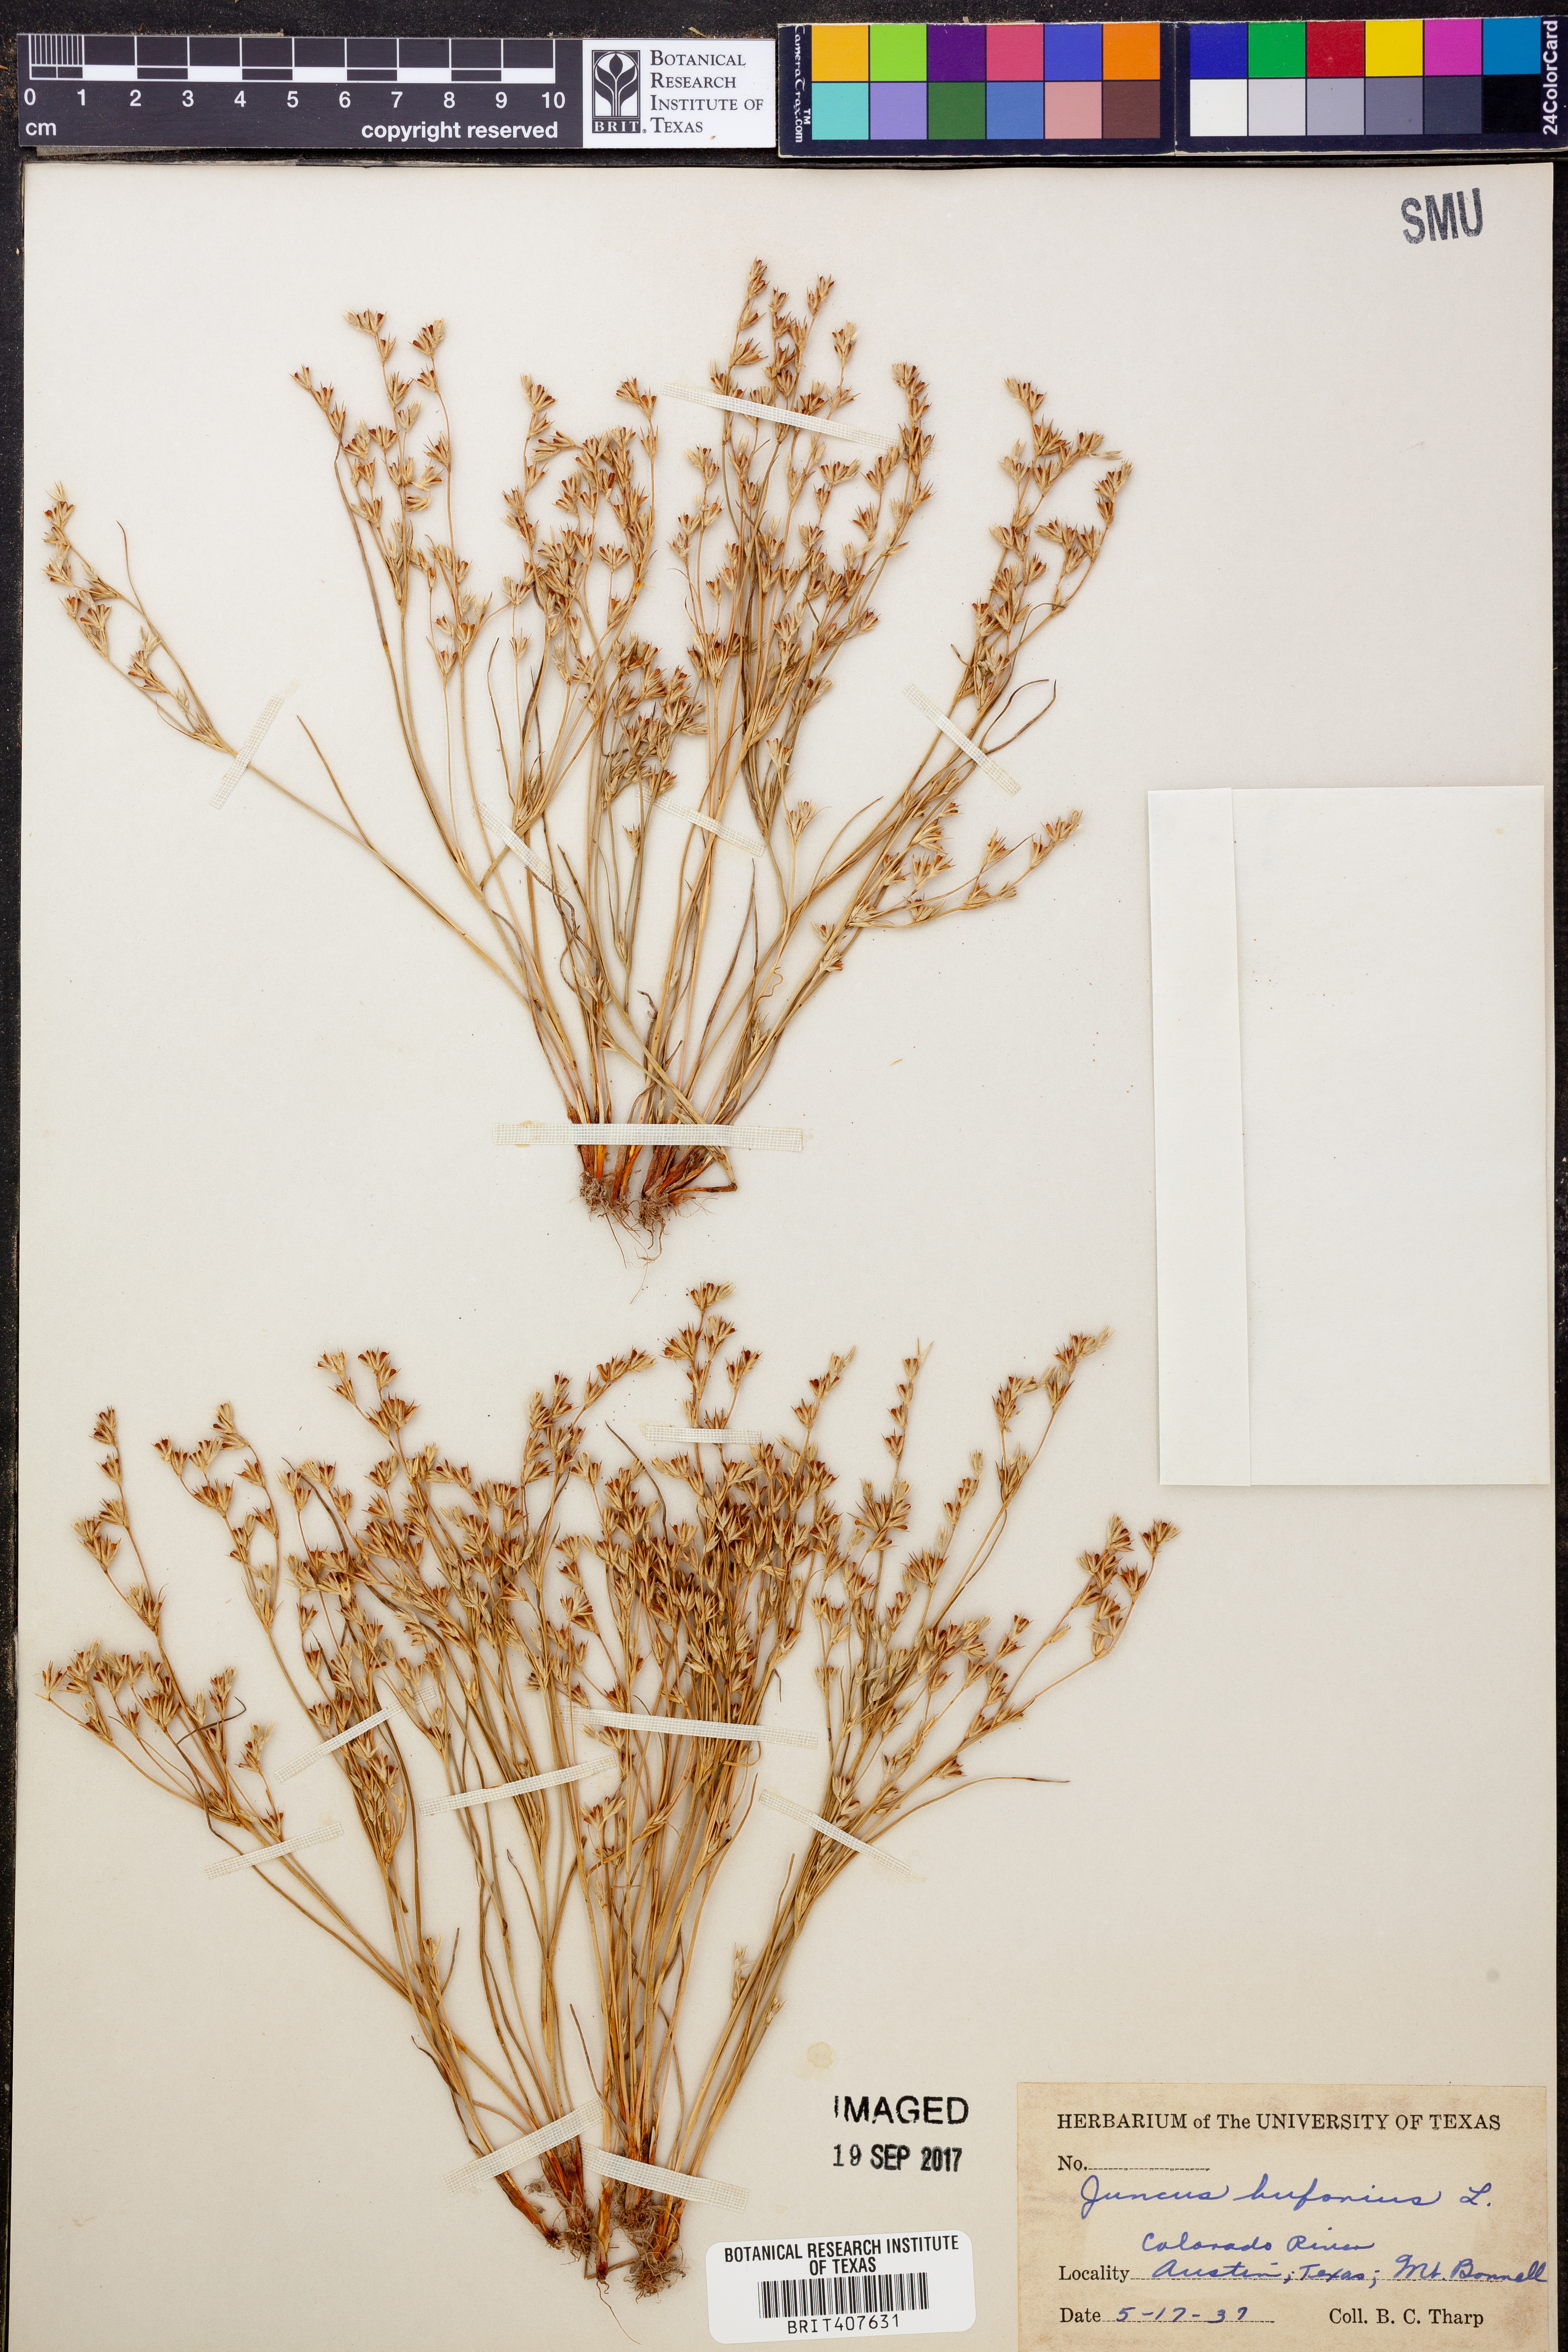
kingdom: Plantae
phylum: Tracheophyta
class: Liliopsida
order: Poales
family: Juncaceae
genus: Juncus
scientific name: Juncus bufonius
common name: Toad rush
